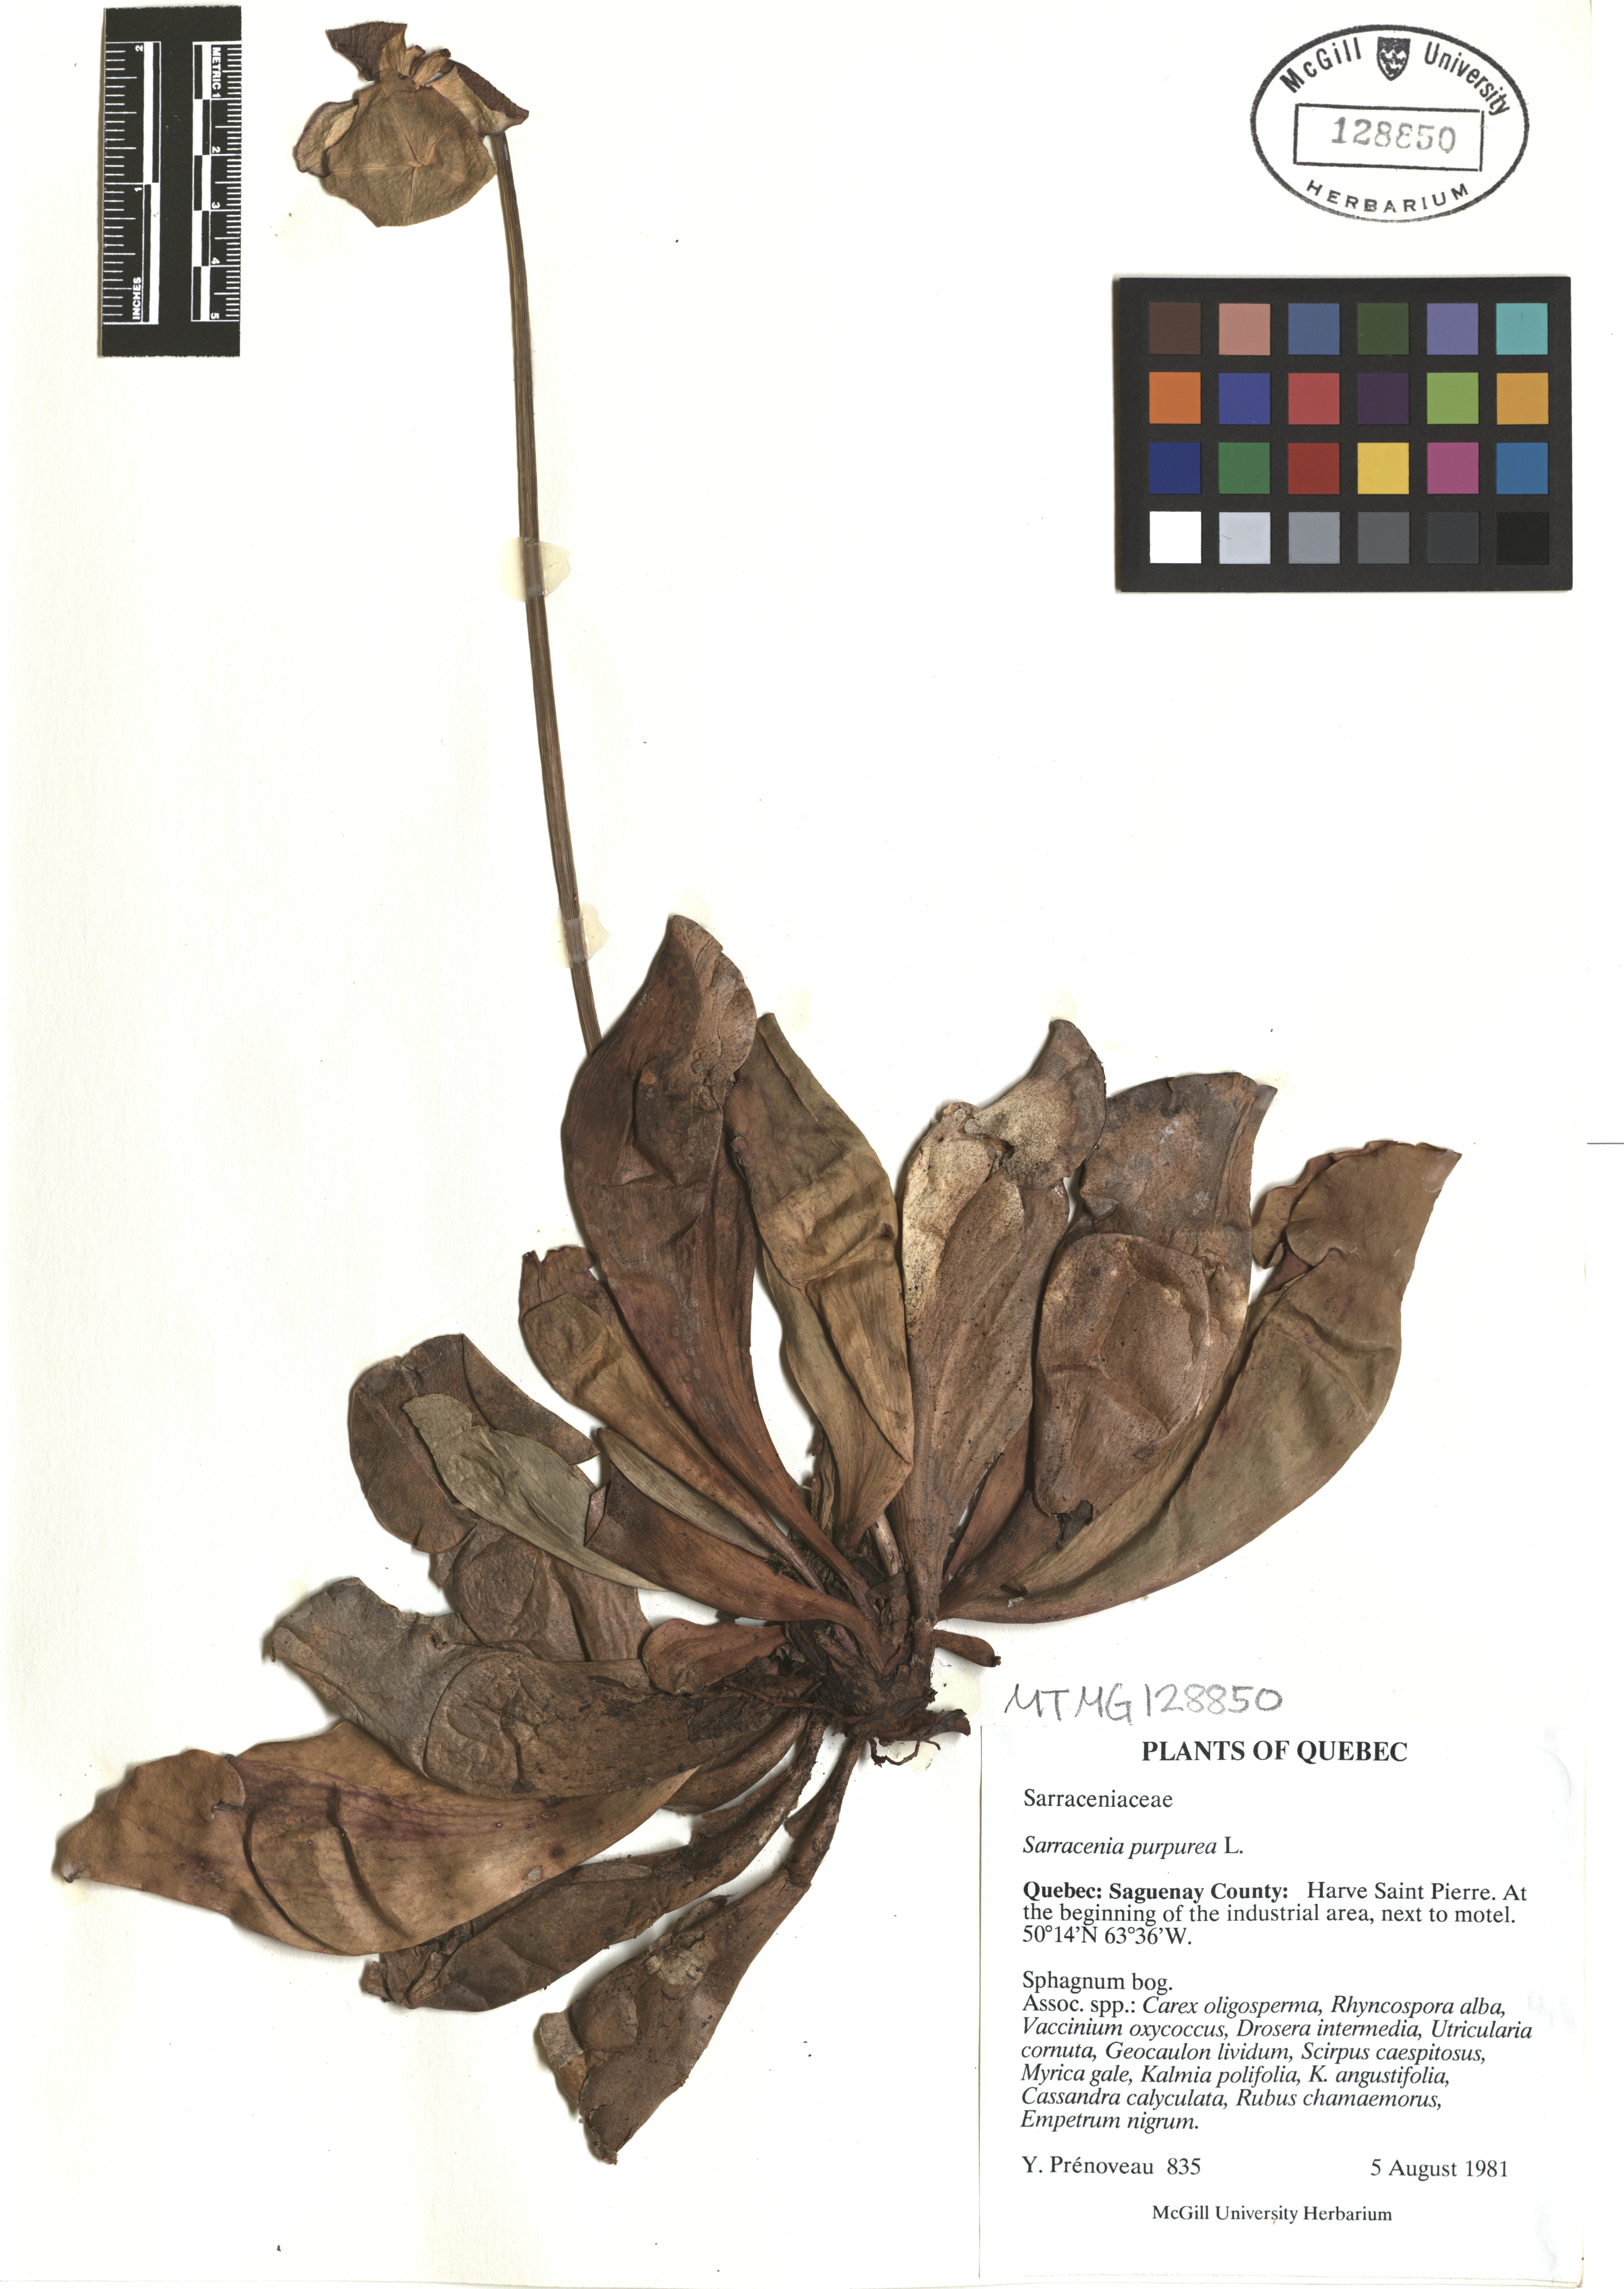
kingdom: Plantae
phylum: Tracheophyta
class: Magnoliopsida
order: Ericales
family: Sarraceniaceae
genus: Sarracenia
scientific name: Sarracenia purpurea
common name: Pitcherplant
